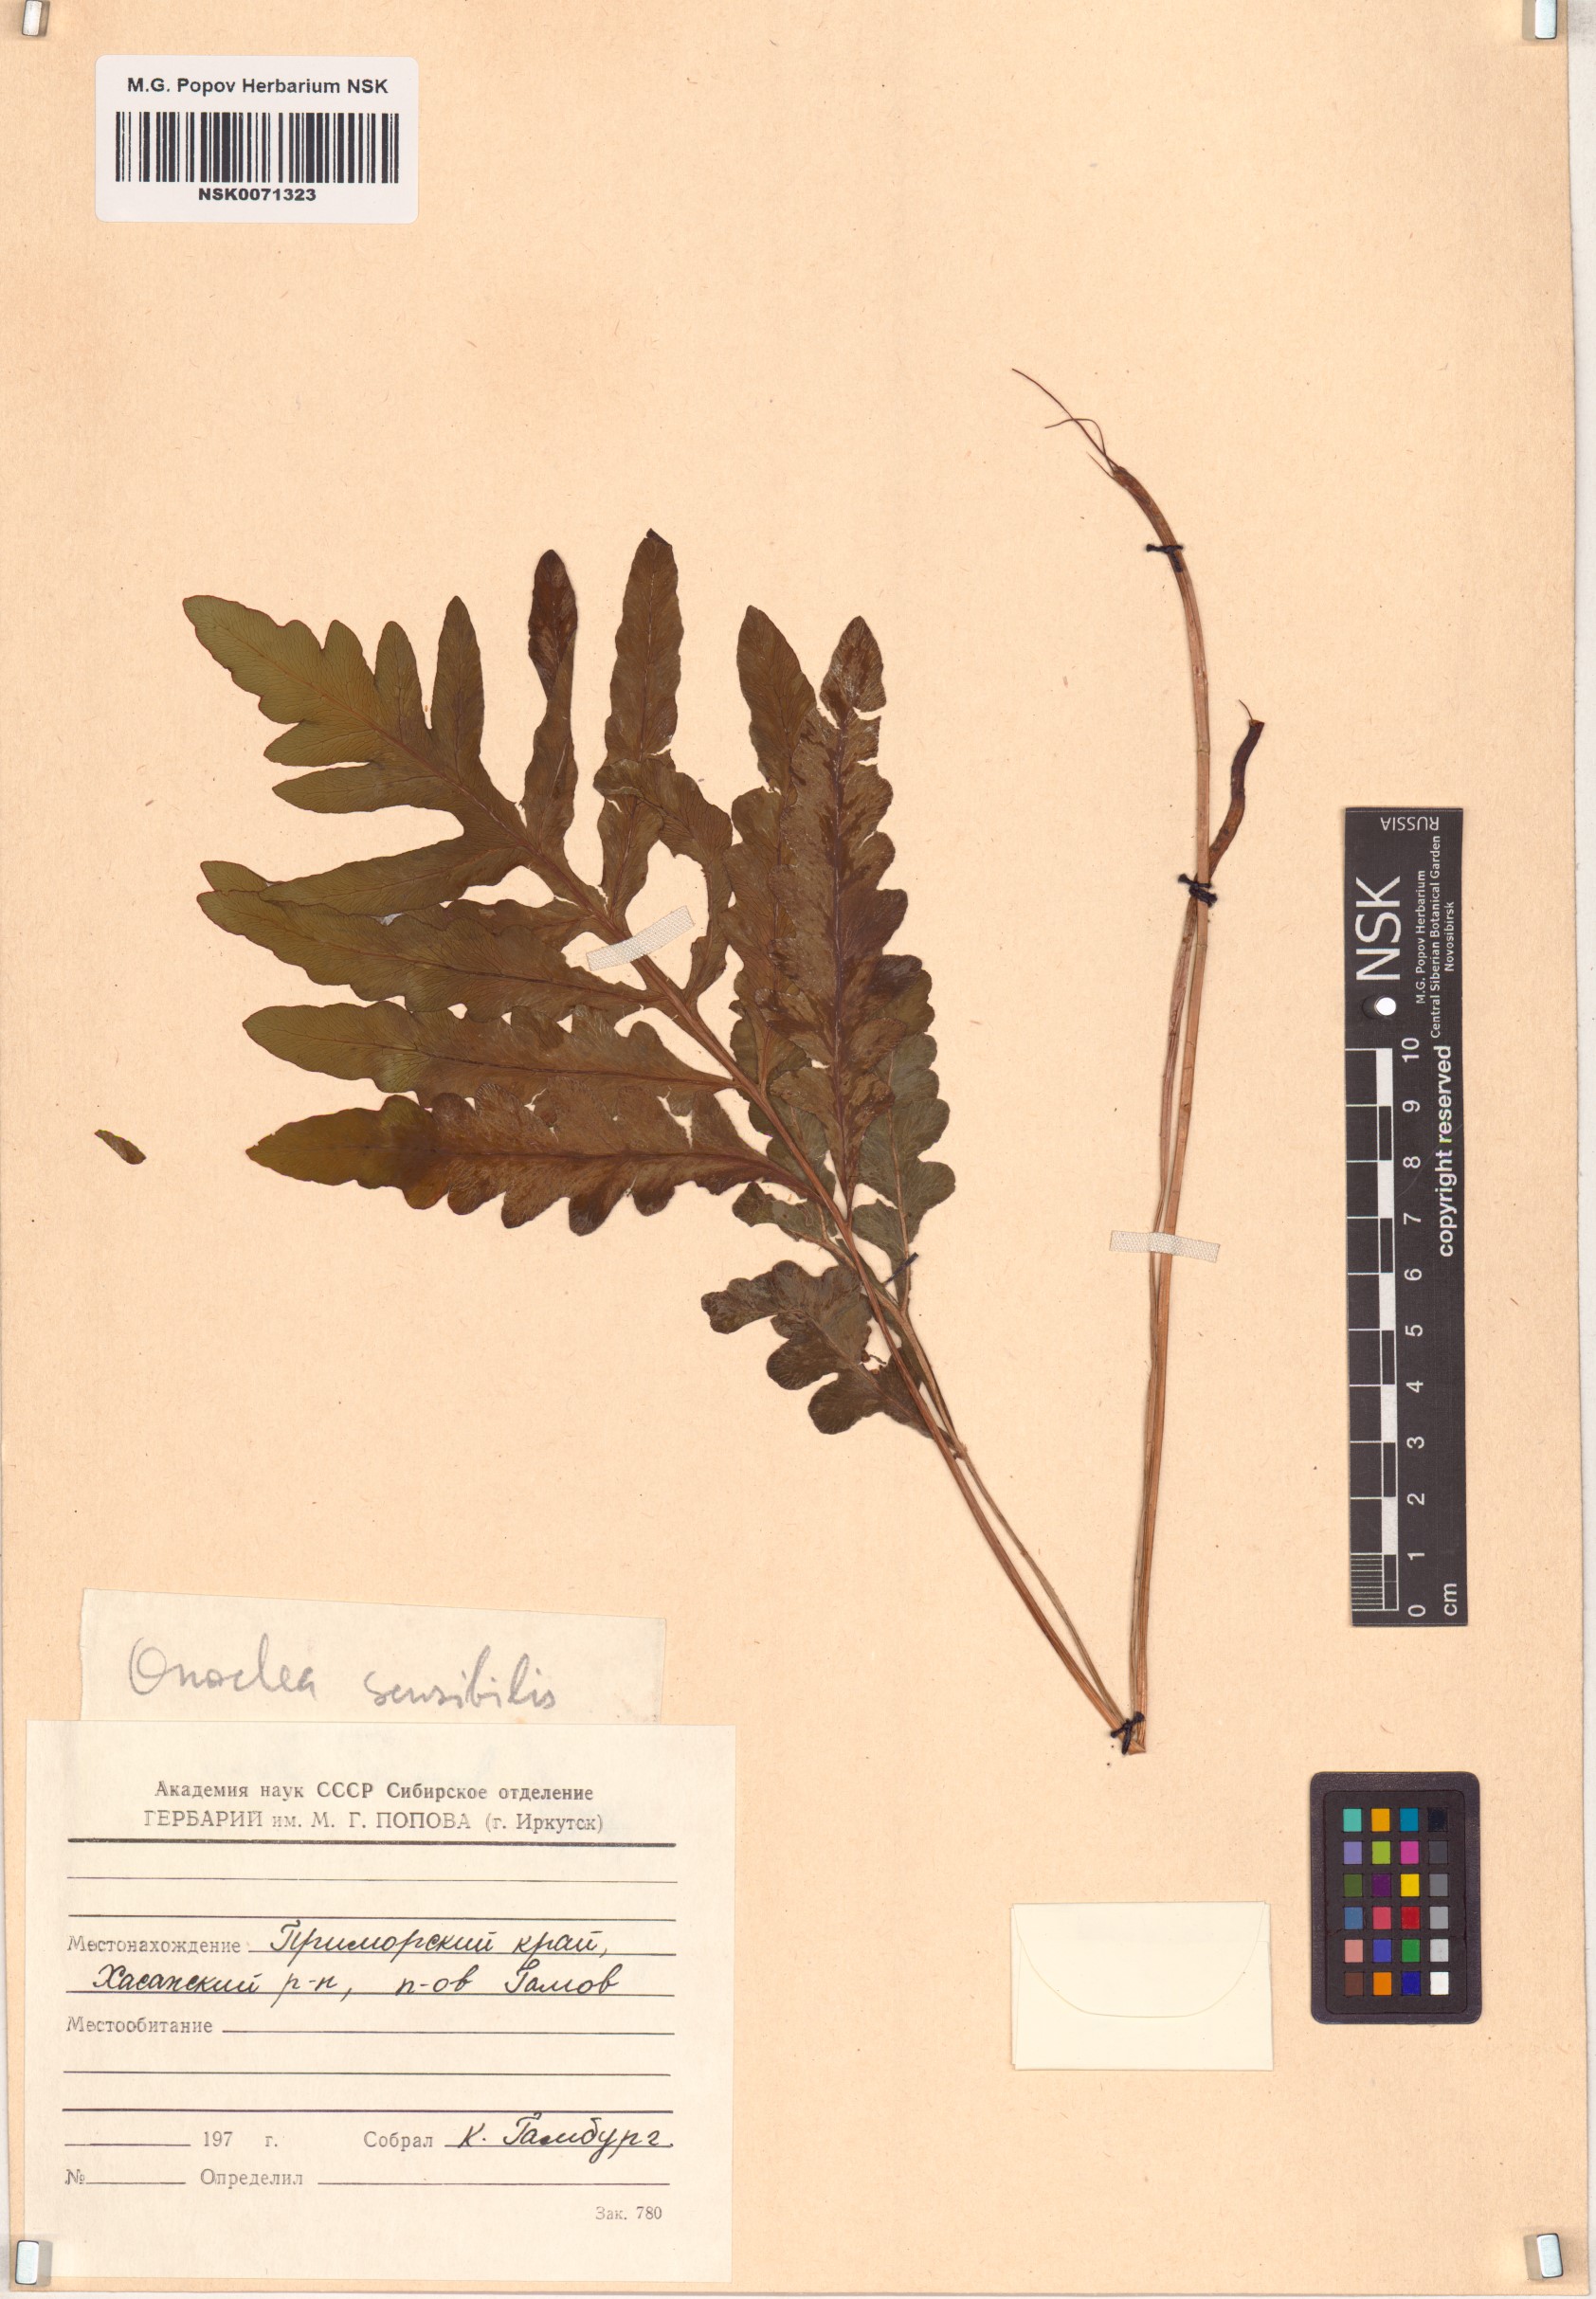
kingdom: Plantae
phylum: Tracheophyta
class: Polypodiopsida
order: Polypodiales
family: Onocleaceae
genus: Onoclea
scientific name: Onoclea sensibilis
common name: Sensitive fern
